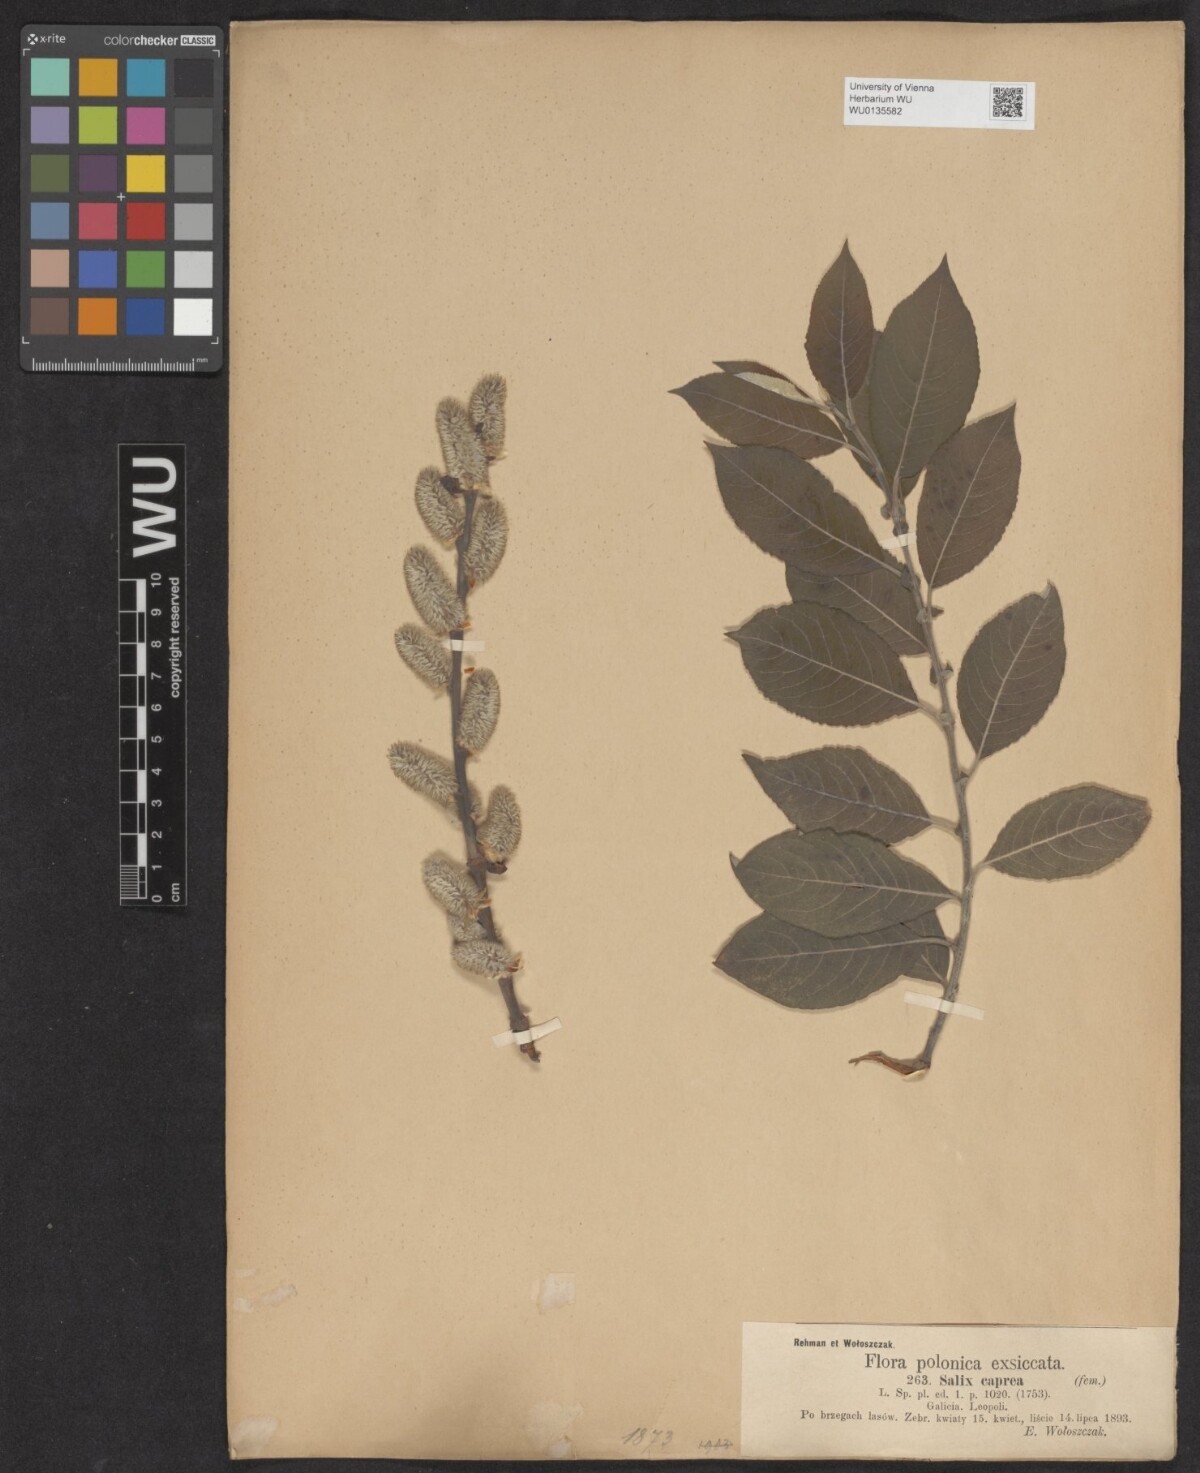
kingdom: Plantae
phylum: Tracheophyta
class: Magnoliopsida
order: Malpighiales
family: Salicaceae
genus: Salix
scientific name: Salix caprea
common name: Goat willow
